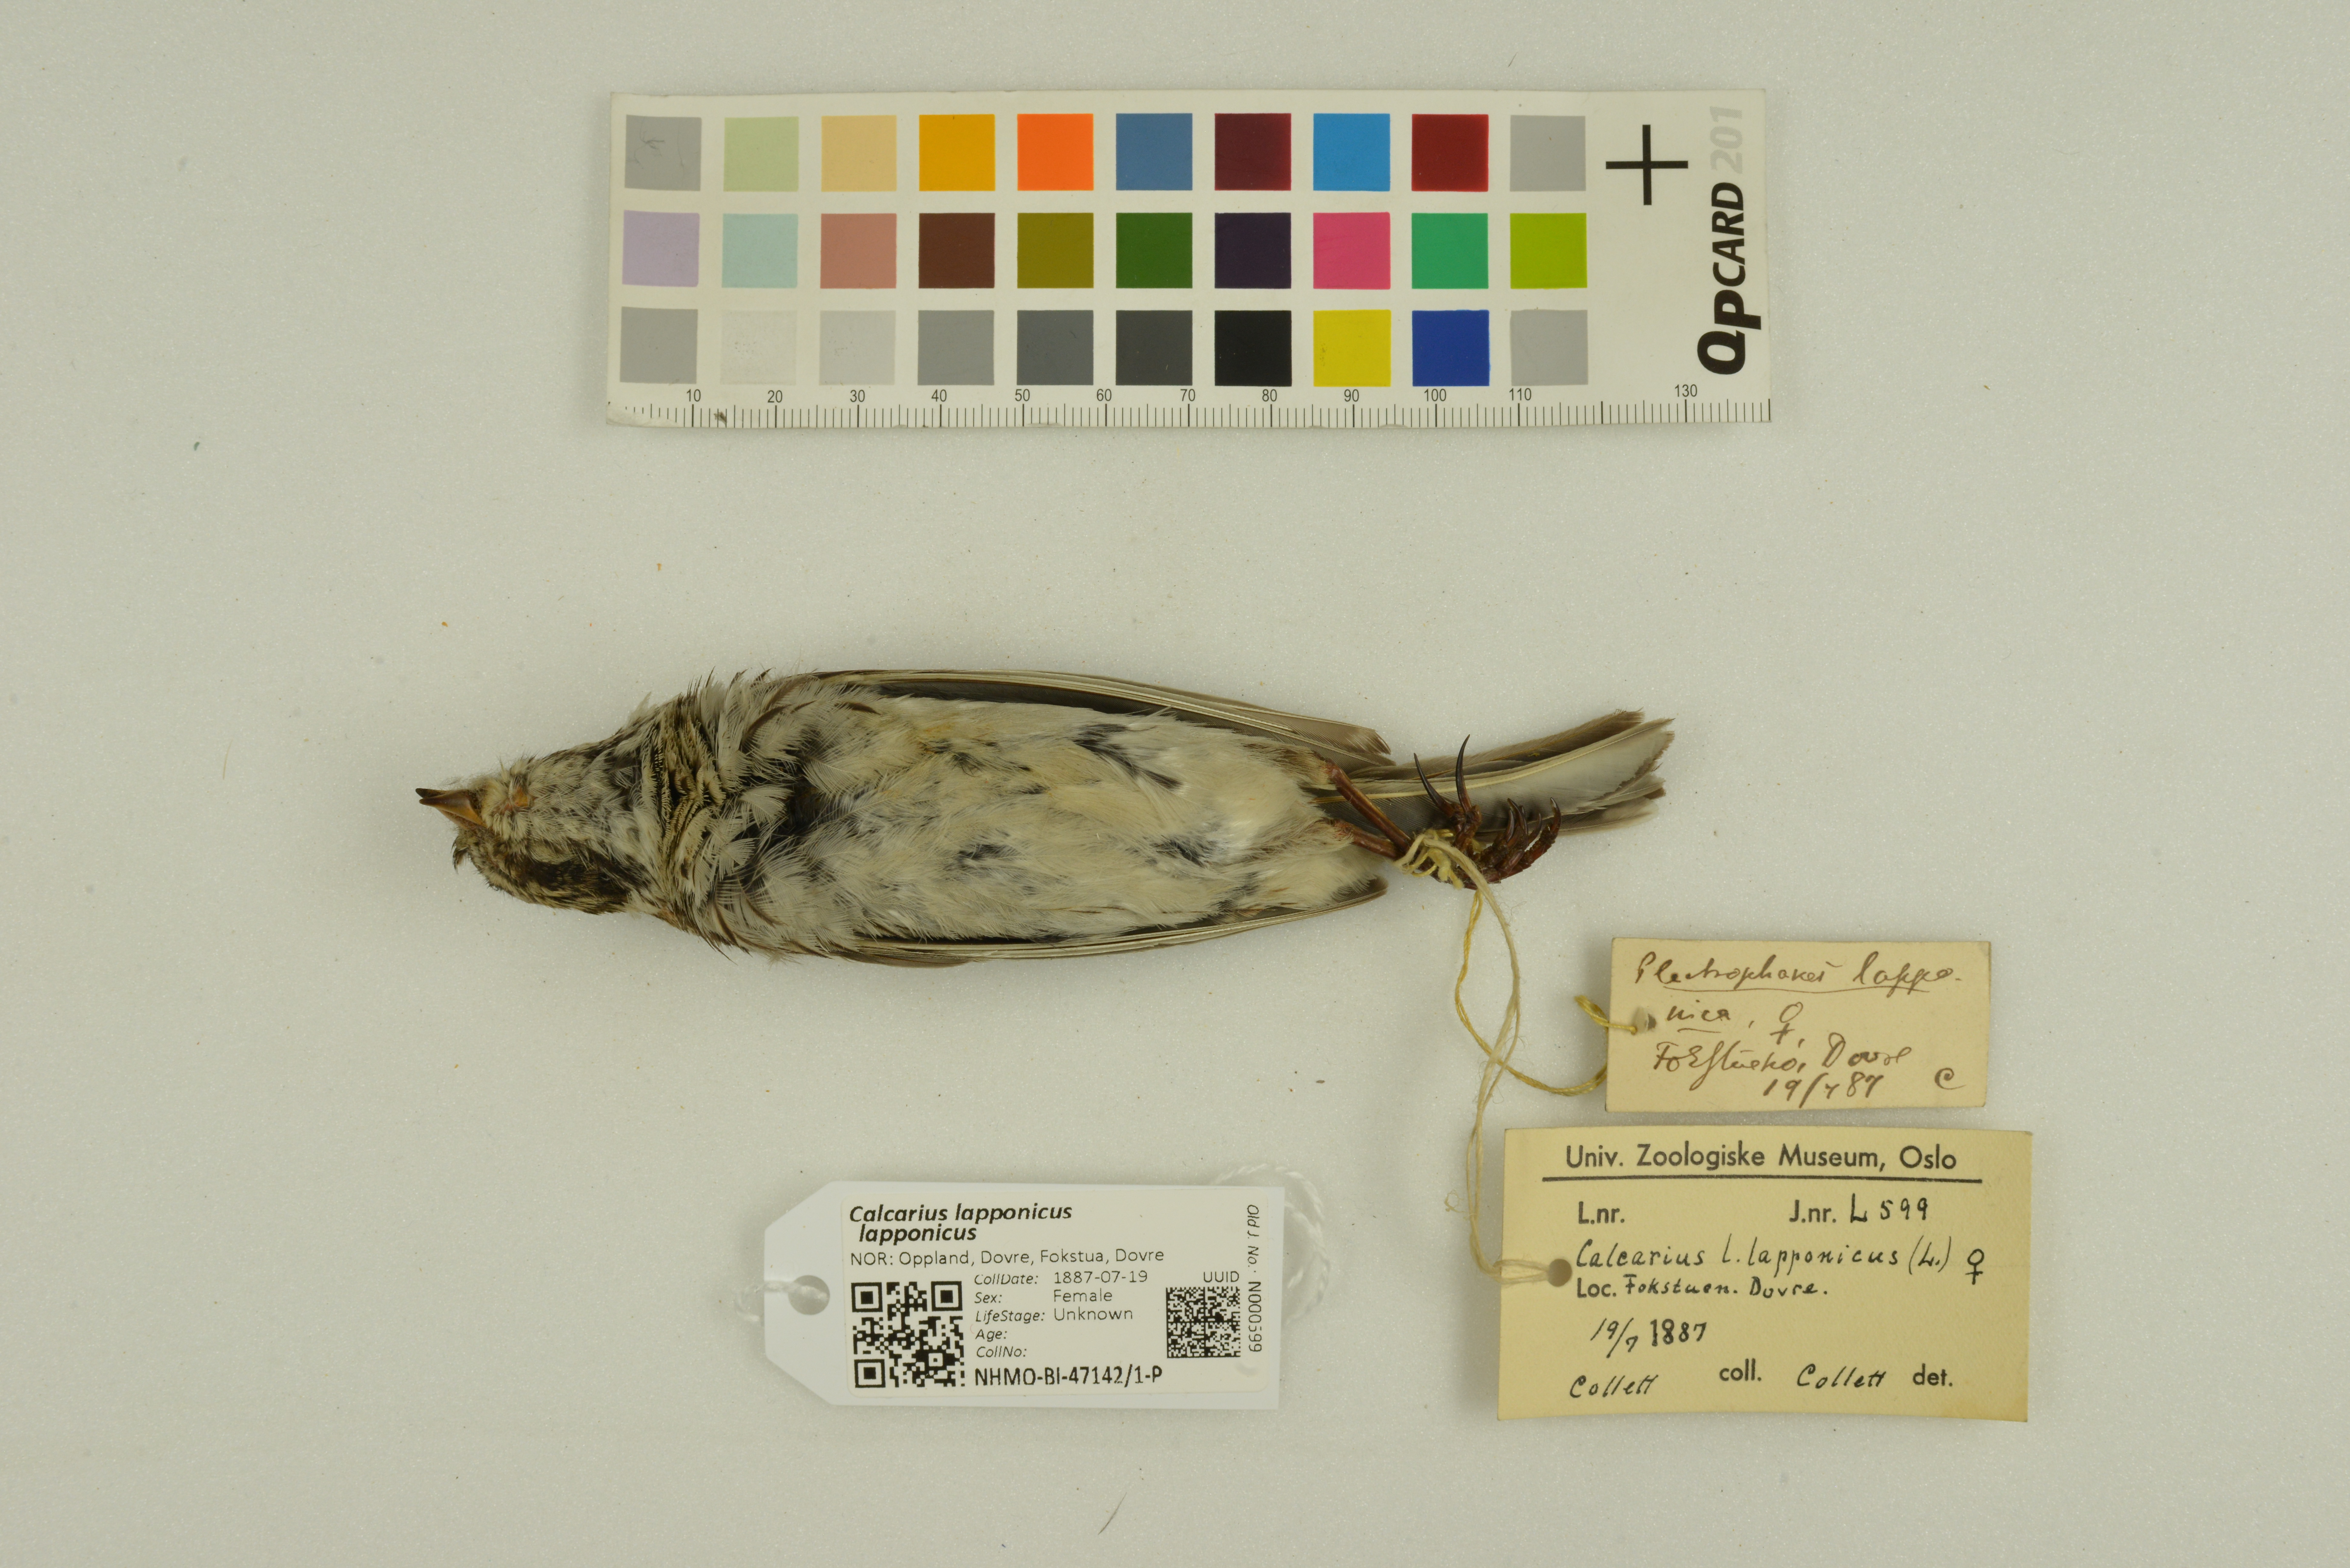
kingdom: Animalia
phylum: Chordata
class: Aves
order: Passeriformes
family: Calcariidae
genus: Calcarius
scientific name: Calcarius lapponicus
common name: Lapland longspur
